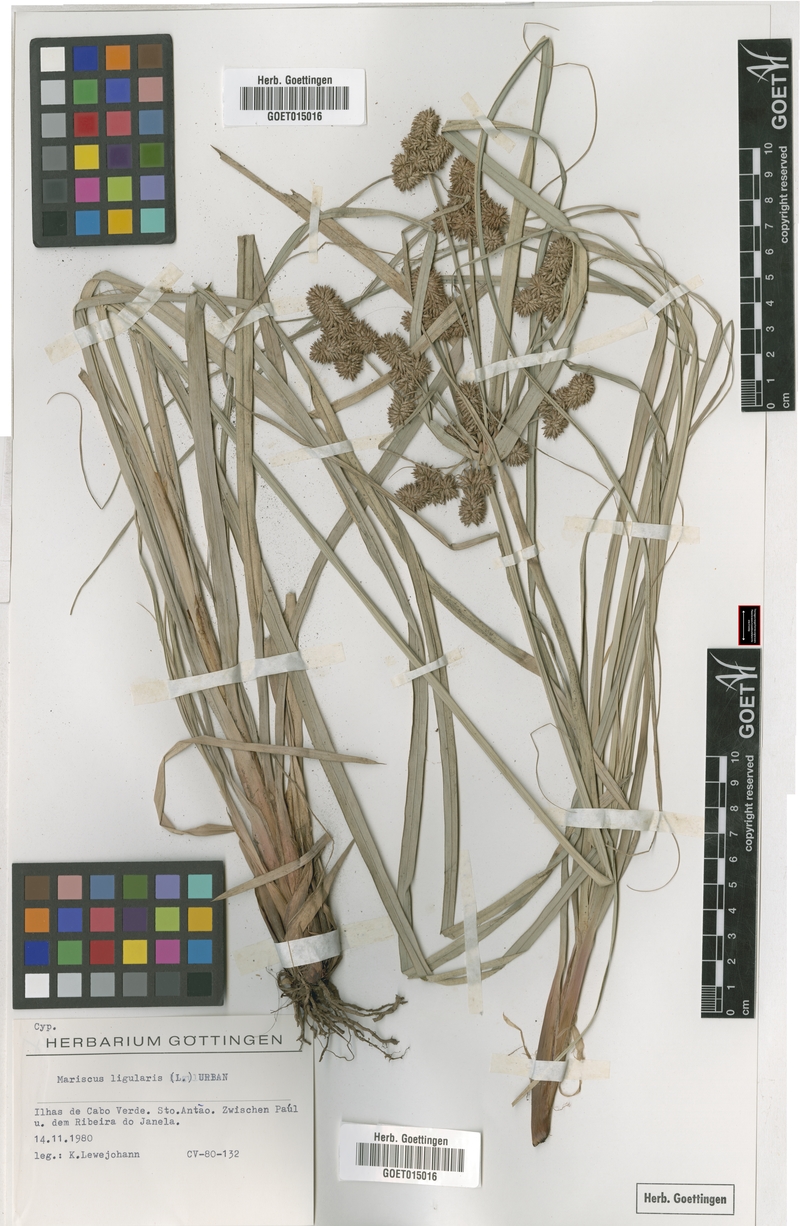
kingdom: Plantae
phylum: Tracheophyta
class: Liliopsida
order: Poales
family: Cyperaceae
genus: Cyperus
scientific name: Cyperus ligularis
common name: Swamp flat sedge
